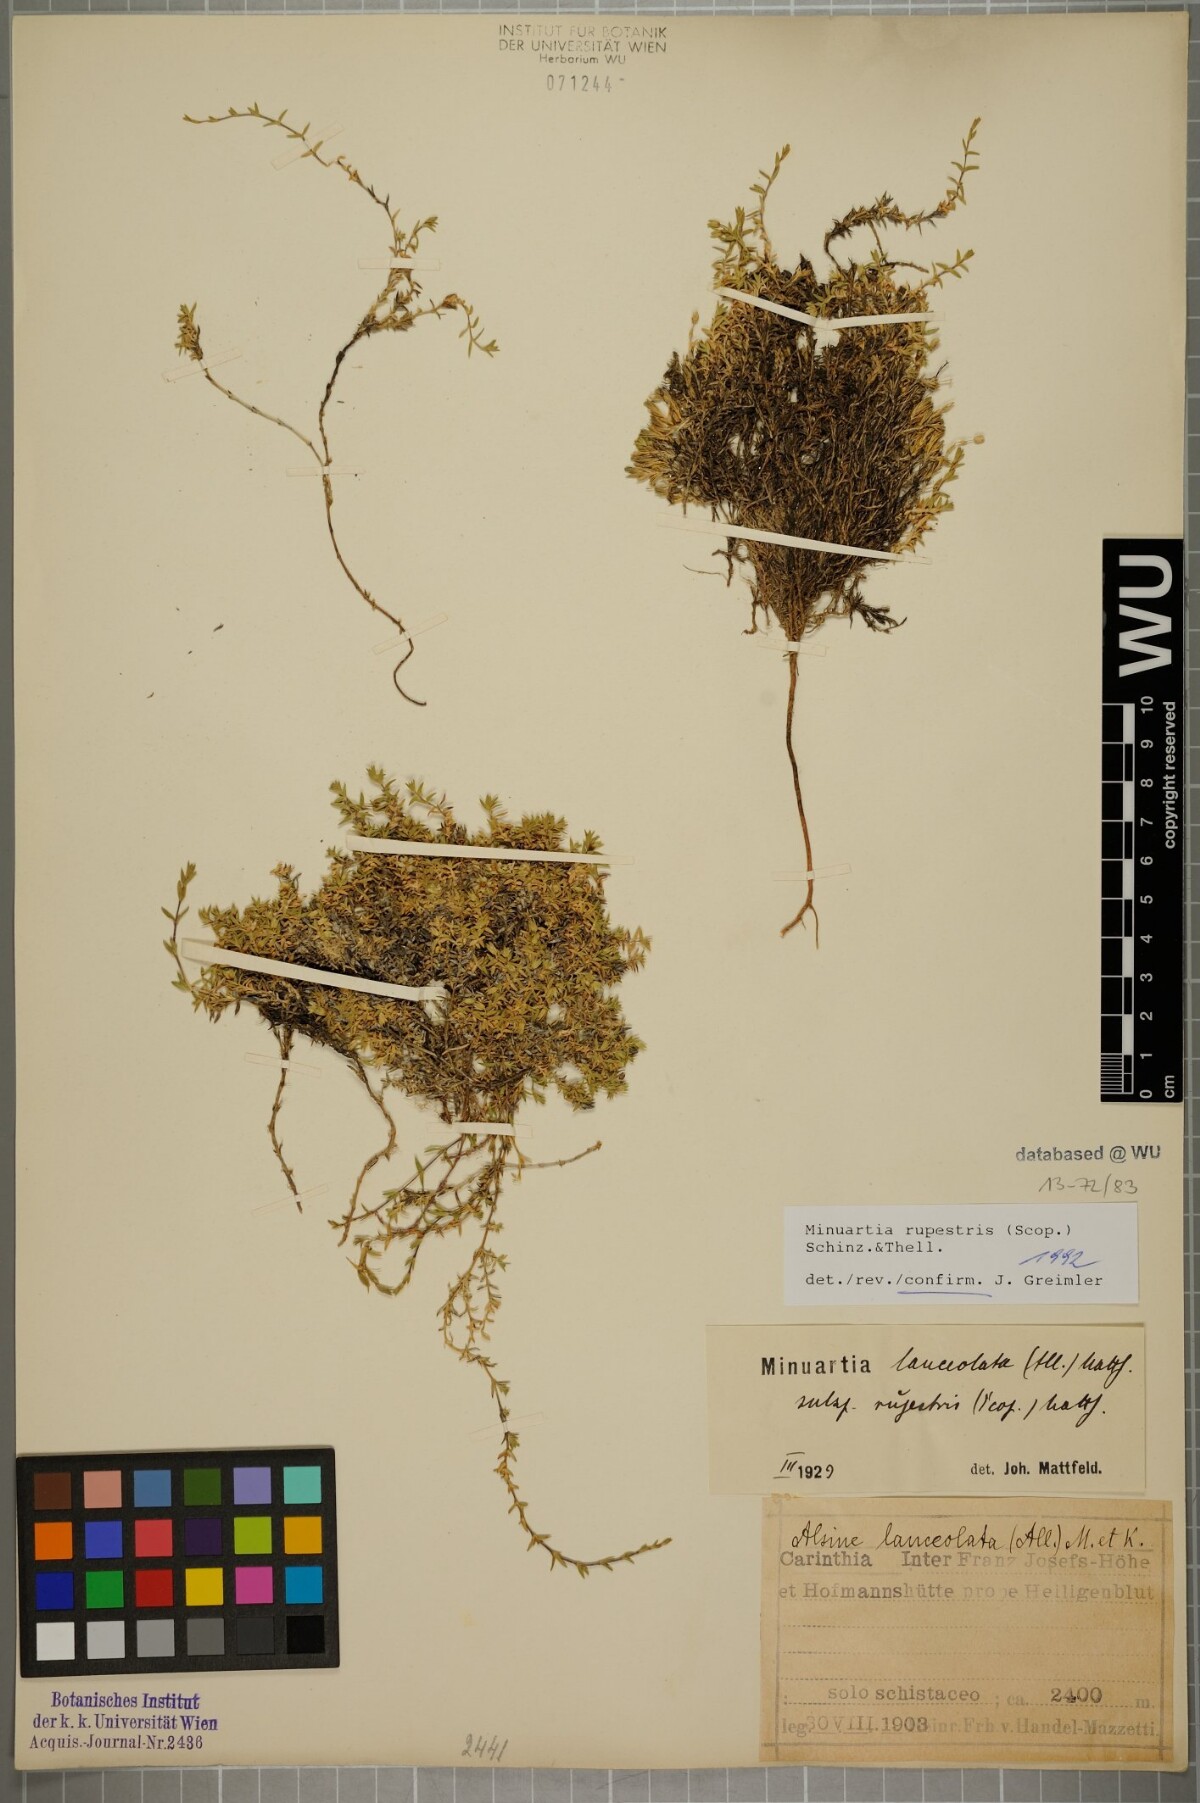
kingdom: Plantae
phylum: Tracheophyta
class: Magnoliopsida
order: Caryophyllales
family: Caryophyllaceae
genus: Facchinia
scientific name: Facchinia rupestris
